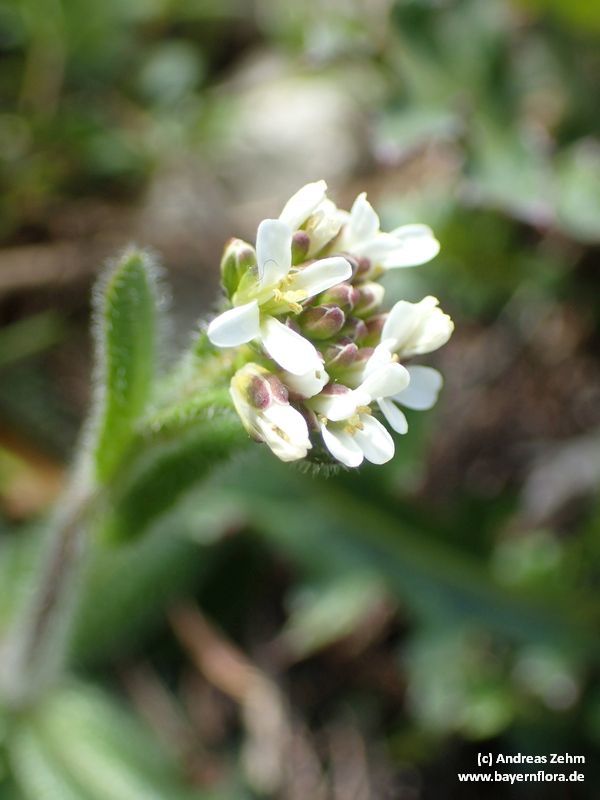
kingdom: Plantae
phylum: Tracheophyta
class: Magnoliopsida
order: Brassicales
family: Brassicaceae
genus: Arabis
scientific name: Arabis ciliata
